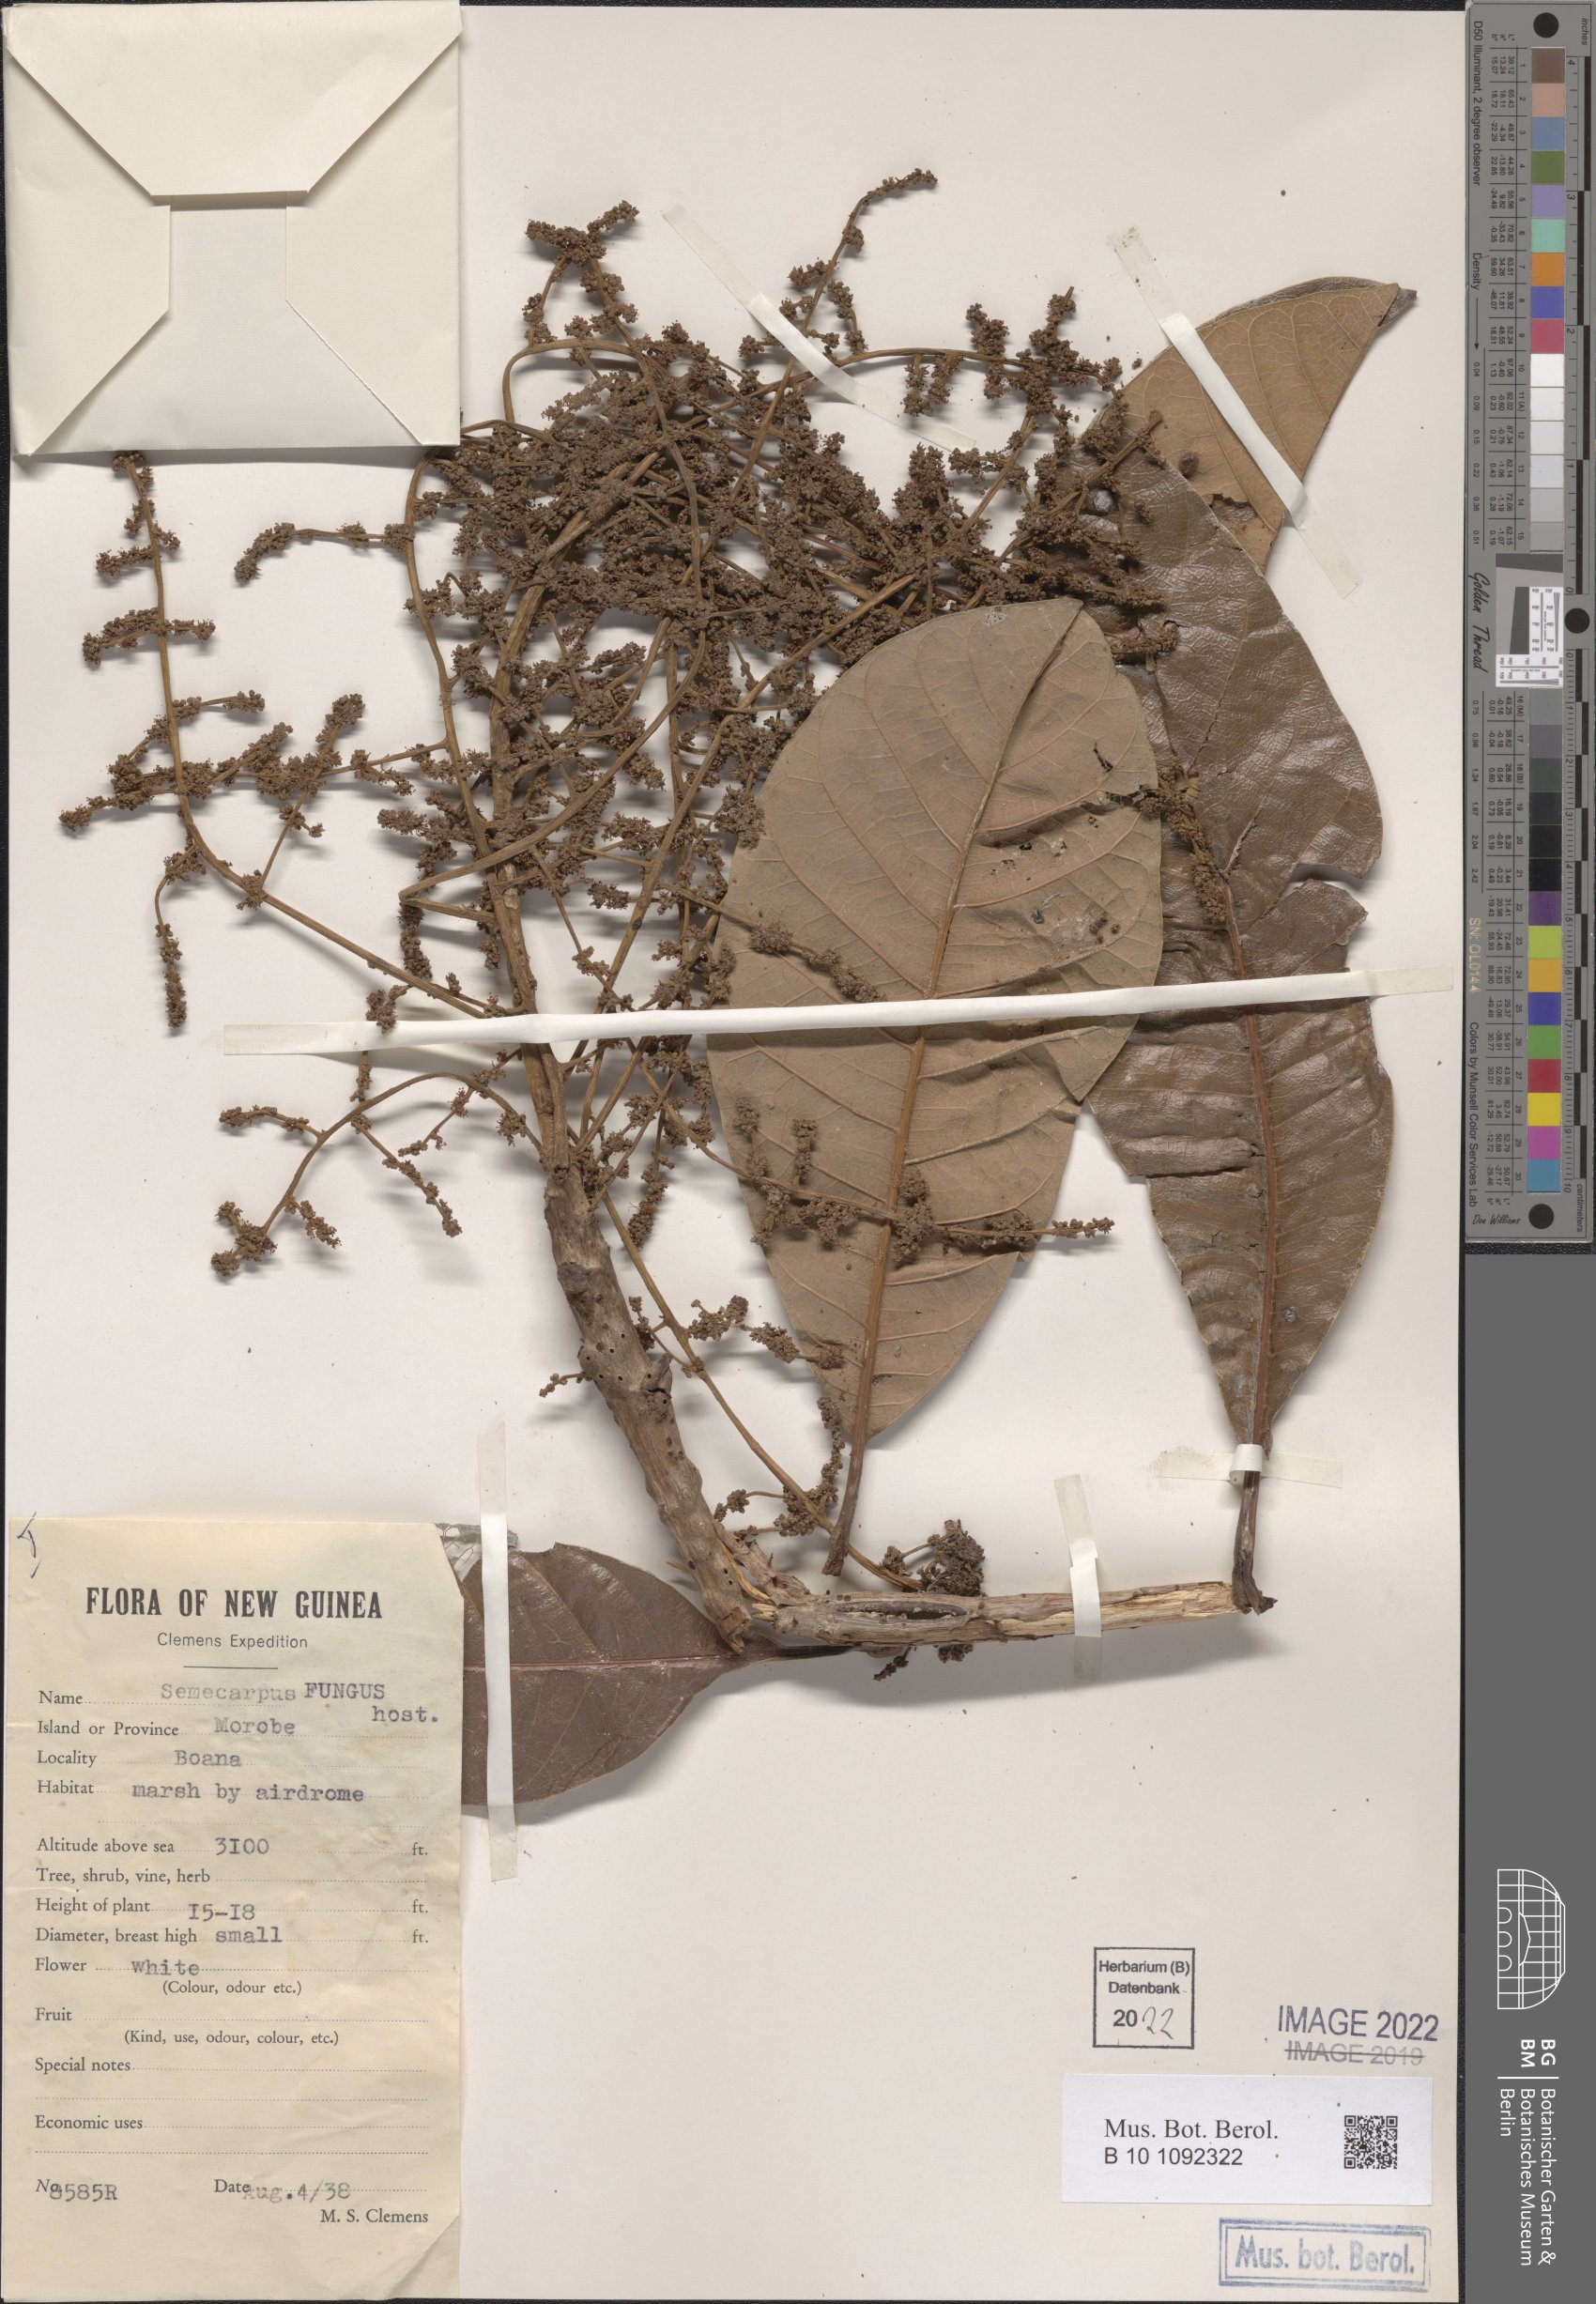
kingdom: Plantae
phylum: Tracheophyta
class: Magnoliopsida
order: Sapindales
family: Anacardiaceae
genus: Semecarpus
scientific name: Semecarpus
